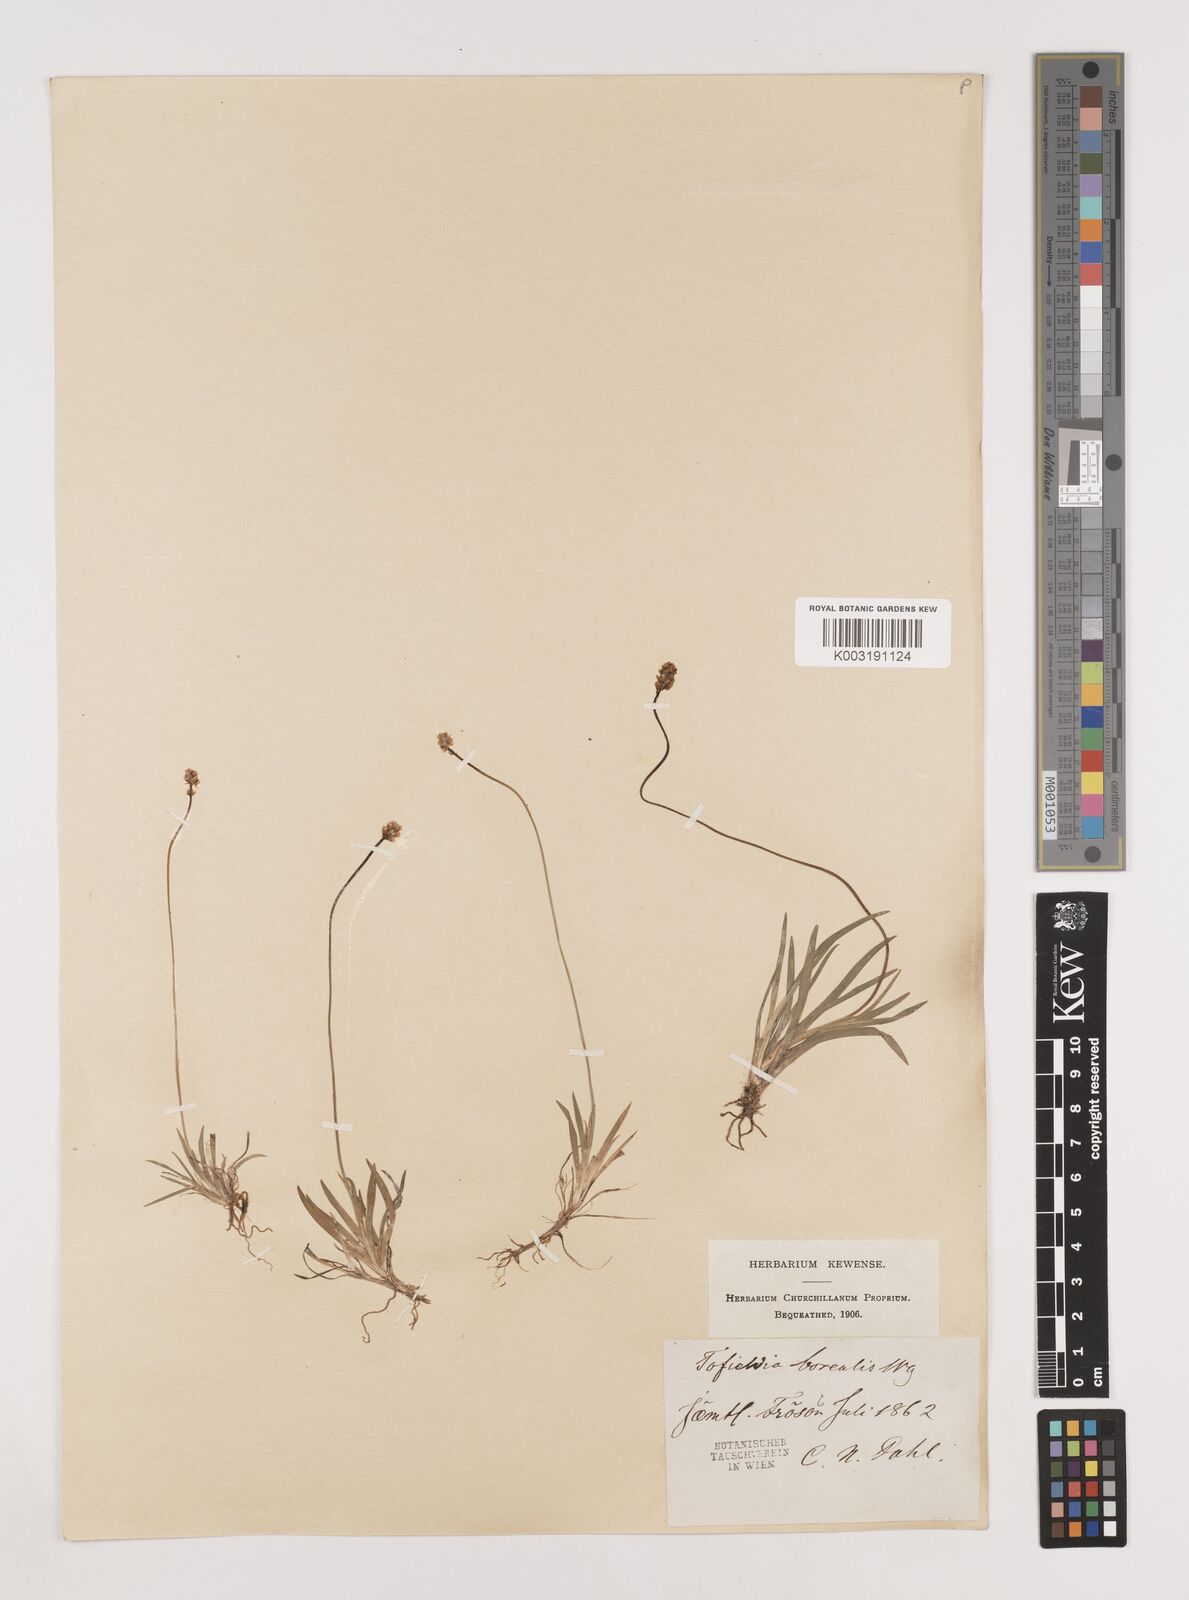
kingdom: Plantae
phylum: Tracheophyta
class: Liliopsida
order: Alismatales
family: Tofieldiaceae
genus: Tofieldia
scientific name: Tofieldia pusilla
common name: Scottish false asphodel
